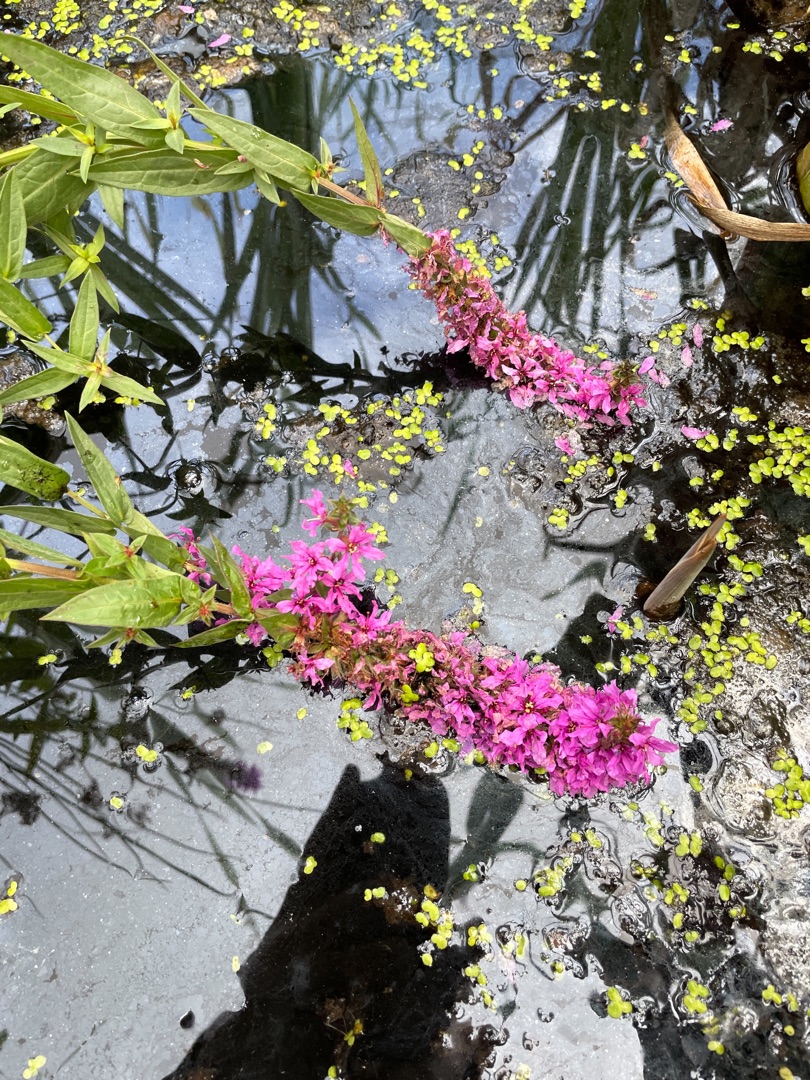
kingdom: Plantae
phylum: Tracheophyta
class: Magnoliopsida
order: Myrtales
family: Lythraceae
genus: Lythrum
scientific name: Lythrum salicaria
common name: Kattehale
